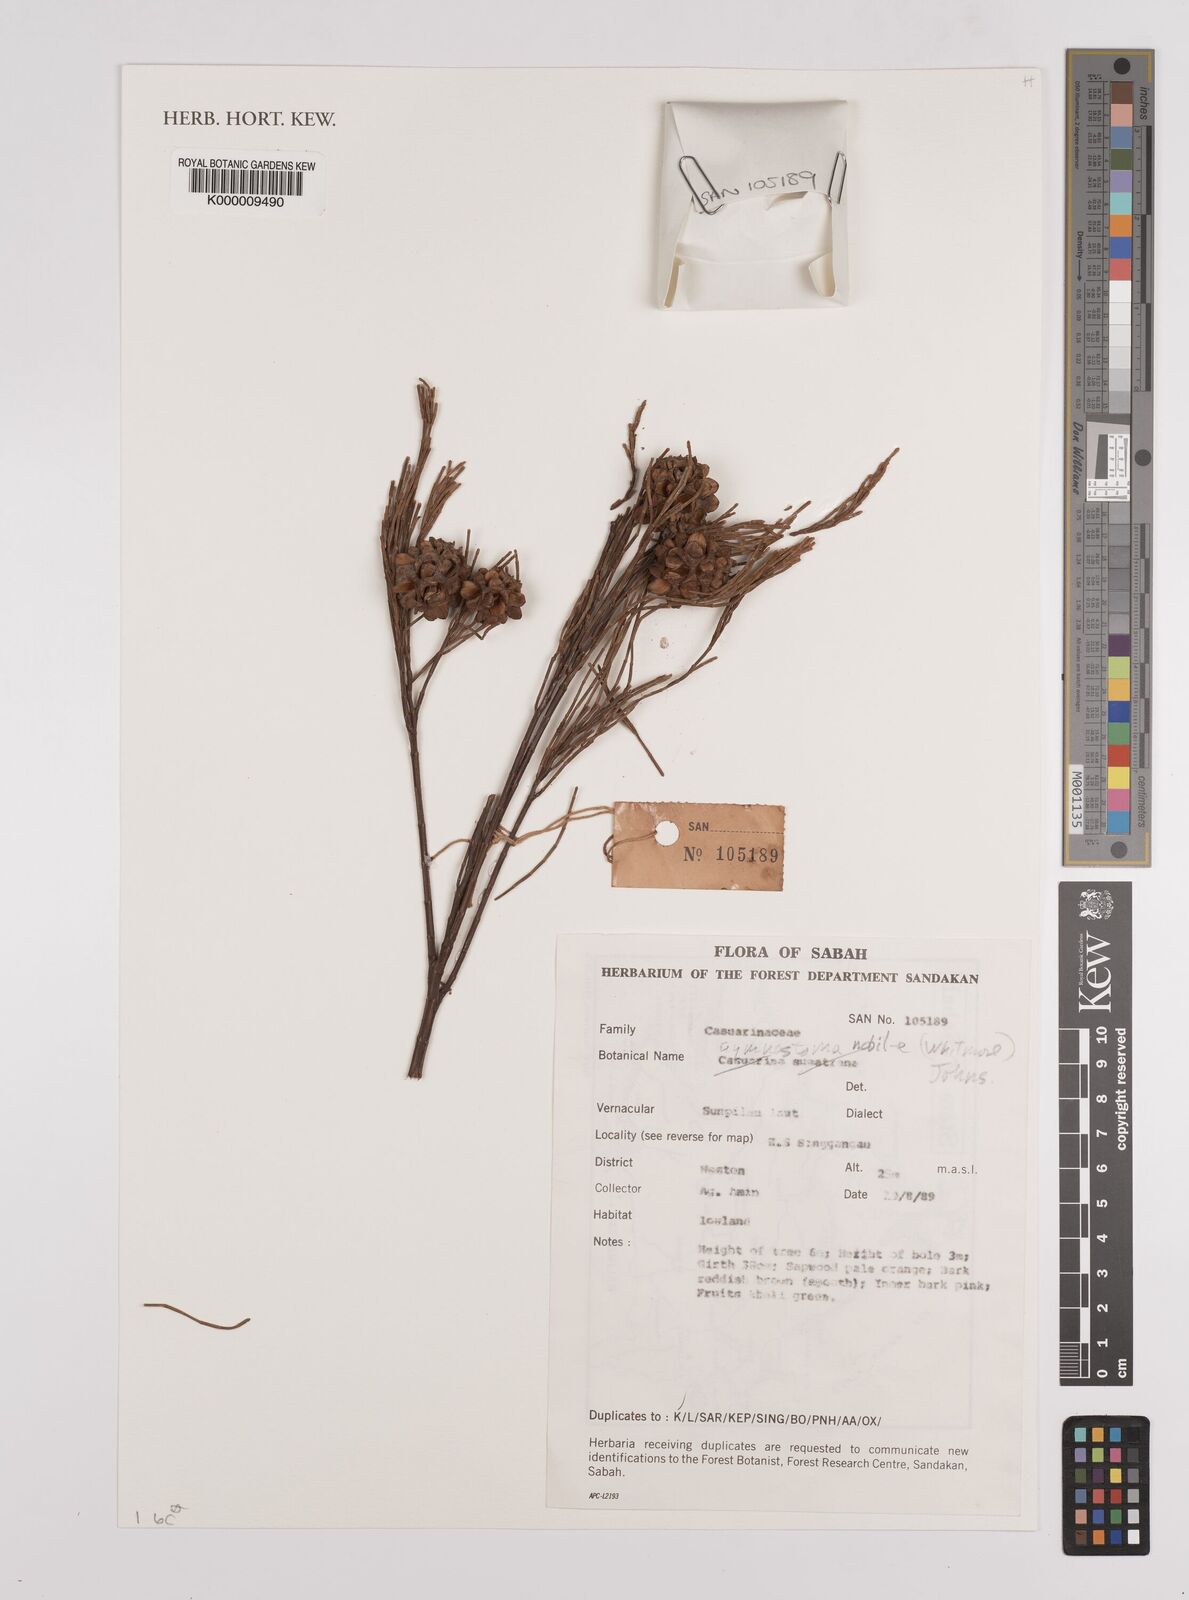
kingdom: Plantae
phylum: Tracheophyta
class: Magnoliopsida
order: Fagales
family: Casuarinaceae
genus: Gymnostoma
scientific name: Gymnostoma nobile
